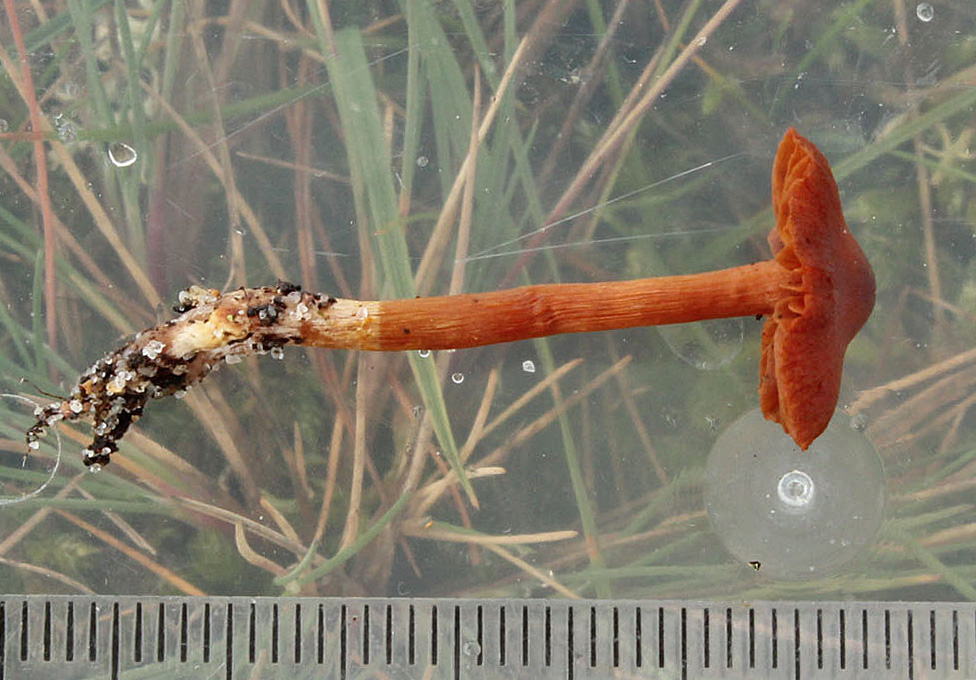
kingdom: Fungi
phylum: Basidiomycota
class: Agaricomycetes
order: Agaricales
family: Cortinariaceae
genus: Cortinarius
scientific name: Cortinarius
